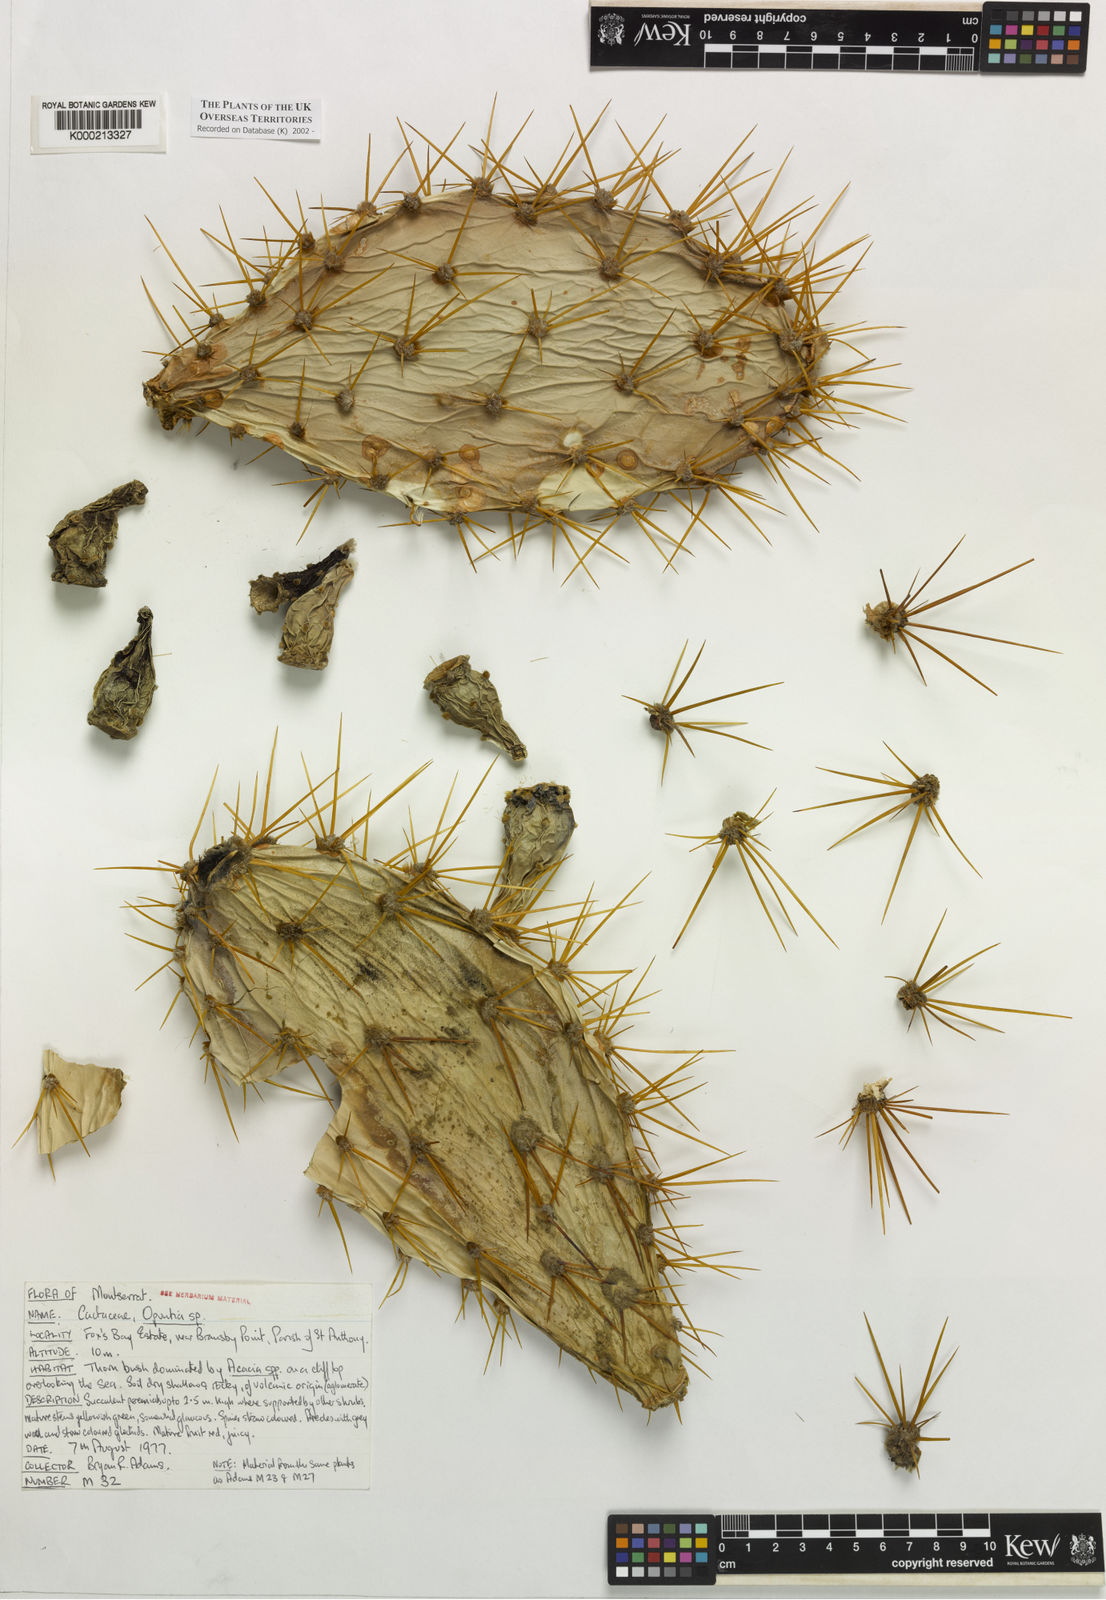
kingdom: Plantae
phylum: Tracheophyta
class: Magnoliopsida
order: Caryophyllales
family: Cactaceae
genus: Opuntia
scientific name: Opuntia
